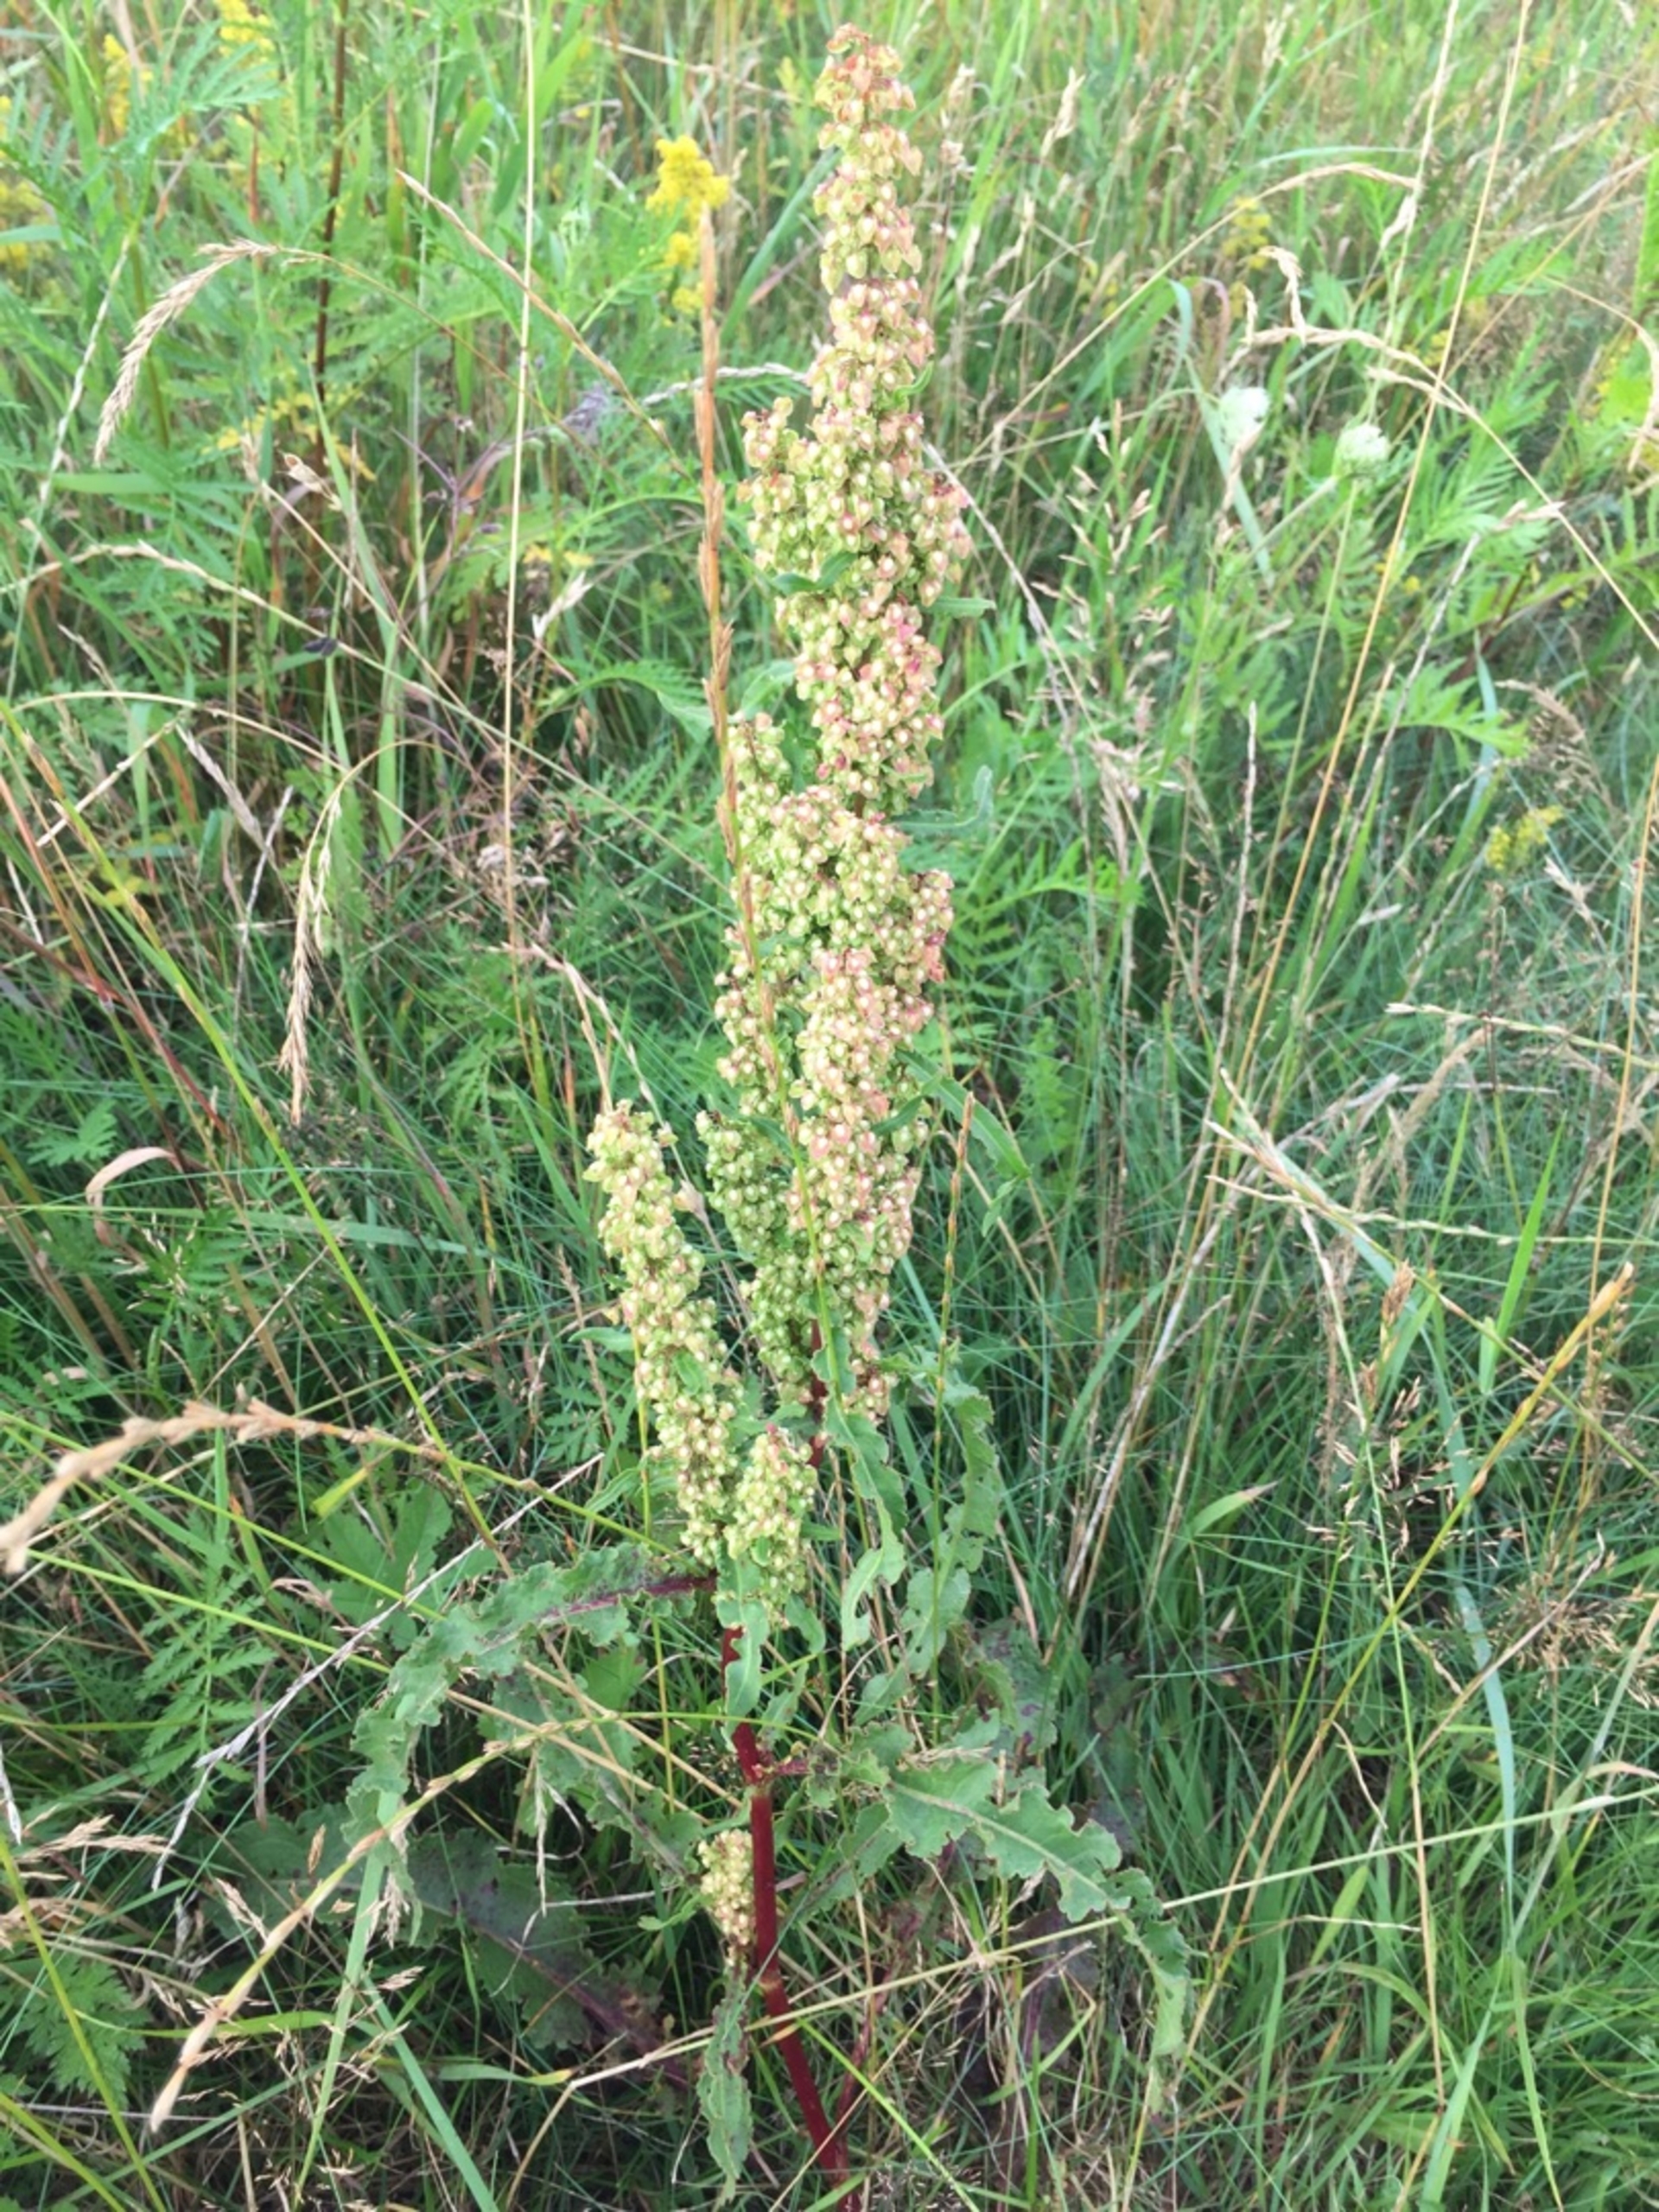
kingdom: Plantae
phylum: Tracheophyta
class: Magnoliopsida
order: Caryophyllales
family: Polygonaceae
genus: Rumex
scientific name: Rumex crispus
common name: Kruset skræppe
